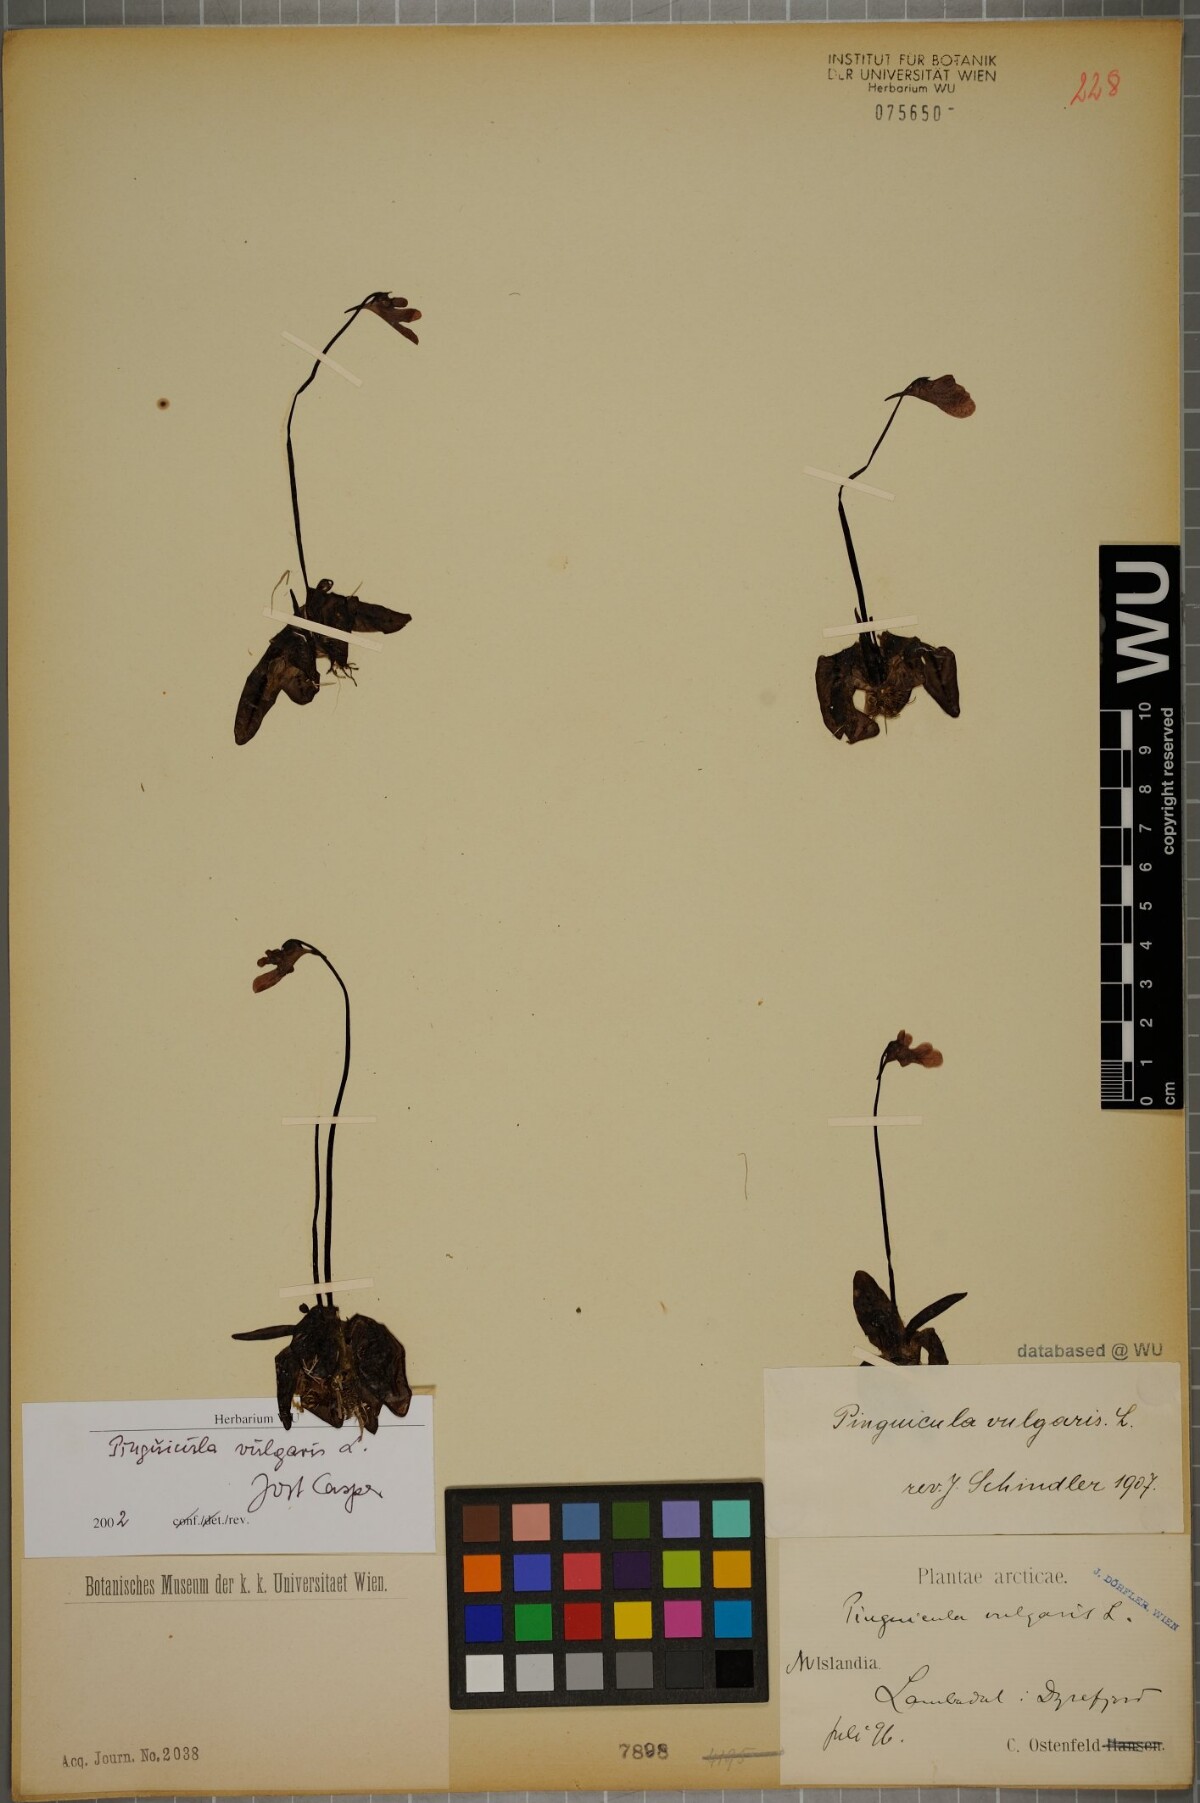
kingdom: Plantae
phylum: Tracheophyta
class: Magnoliopsida
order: Lamiales
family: Lentibulariaceae
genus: Pinguicula
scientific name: Pinguicula vulgaris
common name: Common butterwort
